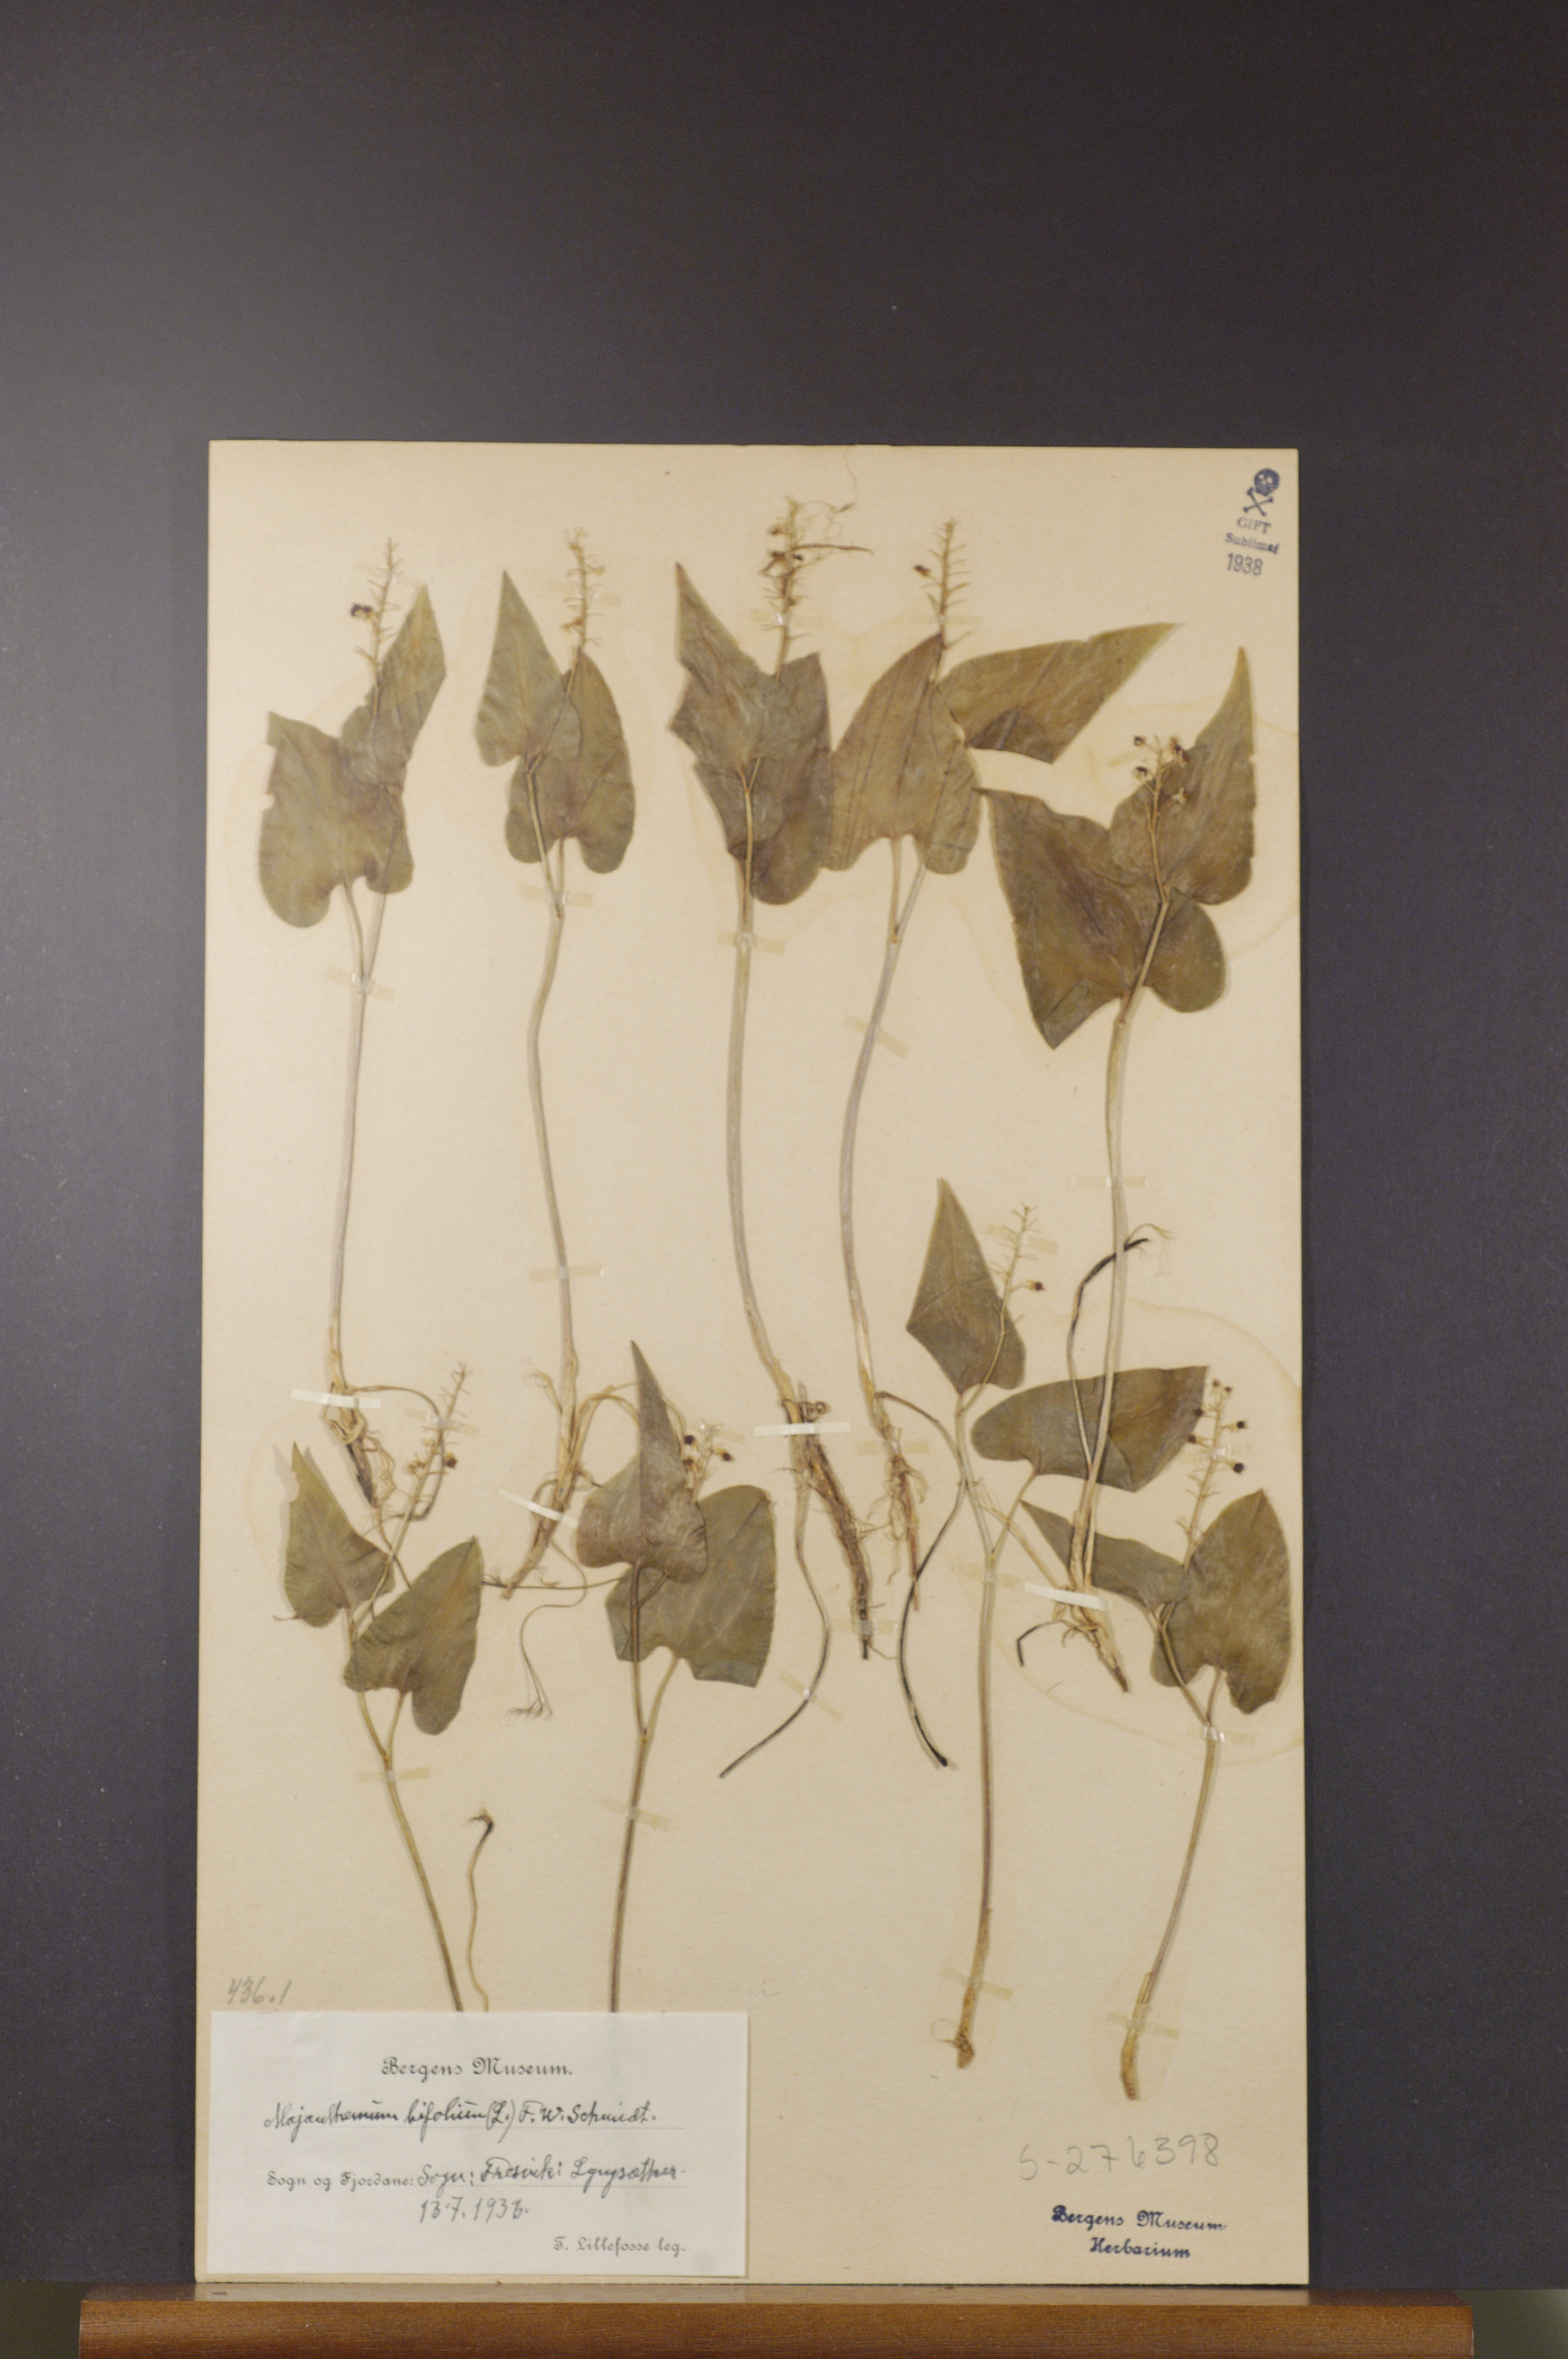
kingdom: Plantae
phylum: Tracheophyta
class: Liliopsida
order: Asparagales
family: Asparagaceae
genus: Maianthemum
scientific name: Maianthemum bifolium
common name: May lily
